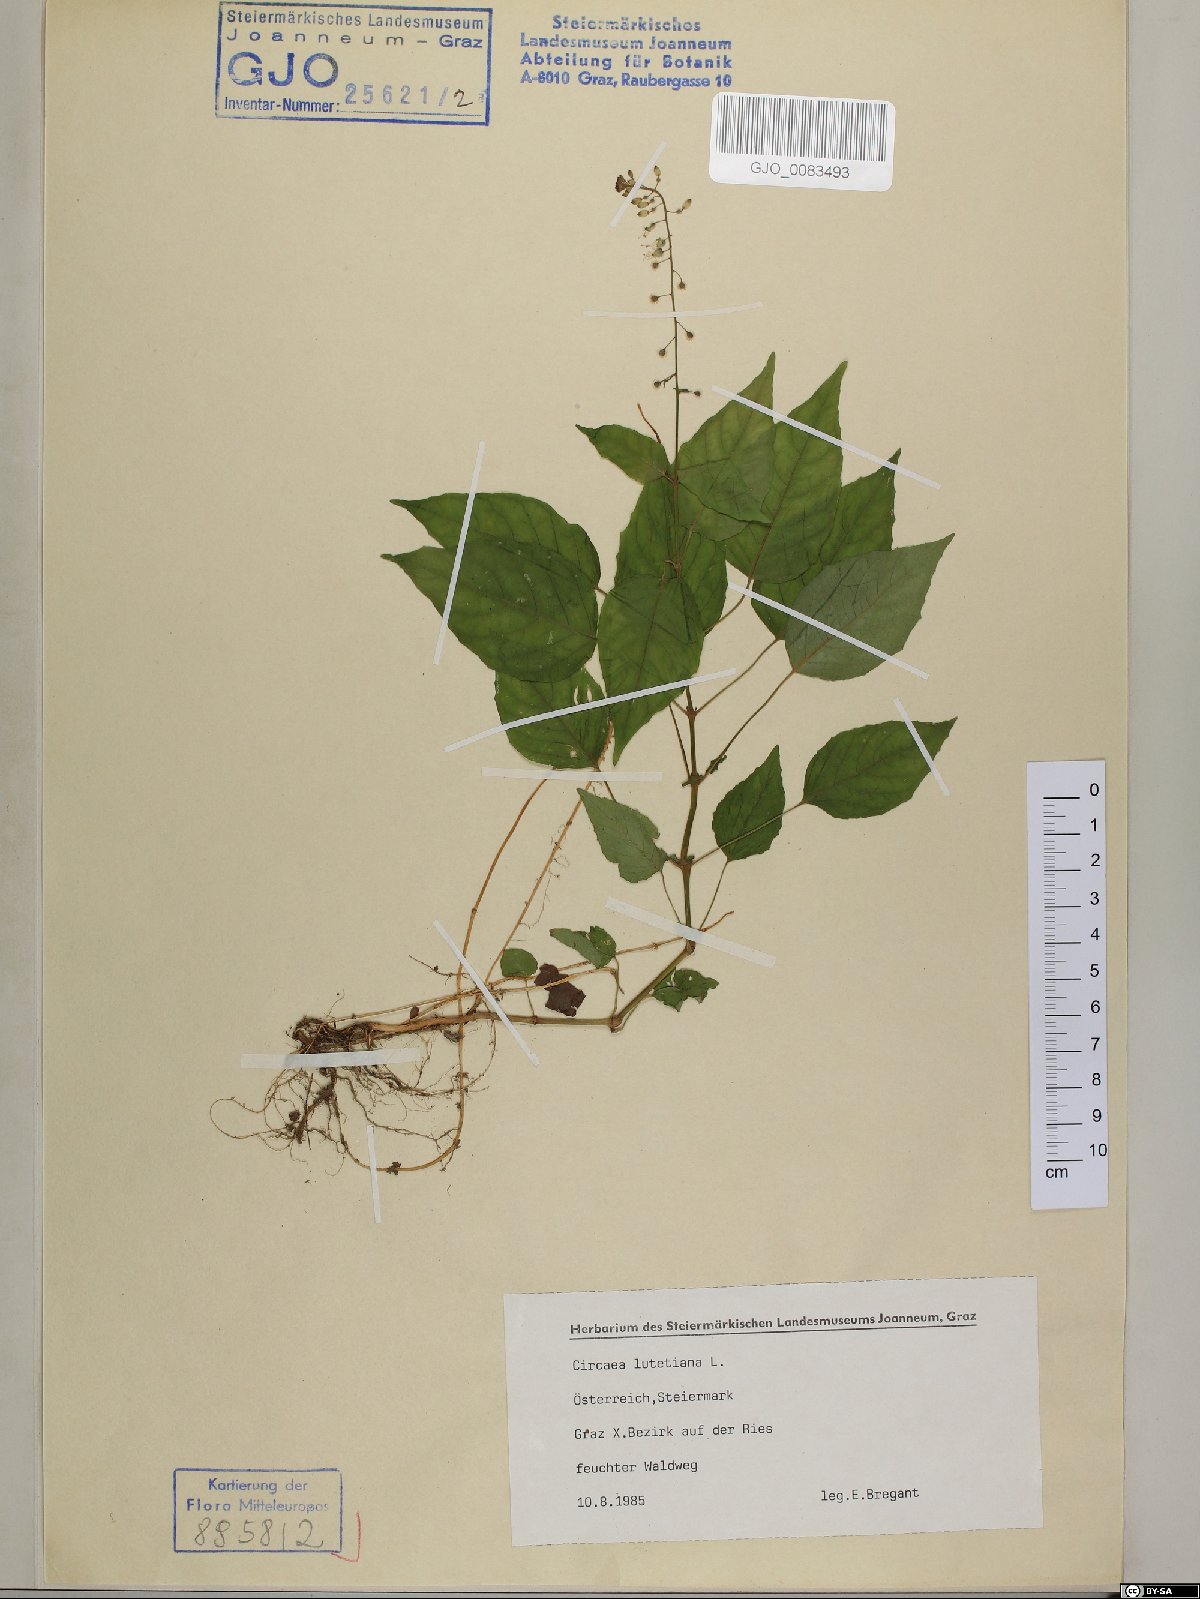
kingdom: Plantae
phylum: Tracheophyta
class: Magnoliopsida
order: Myrtales
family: Onagraceae
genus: Circaea
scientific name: Circaea lutetiana
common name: Enchanter's-nightshade
